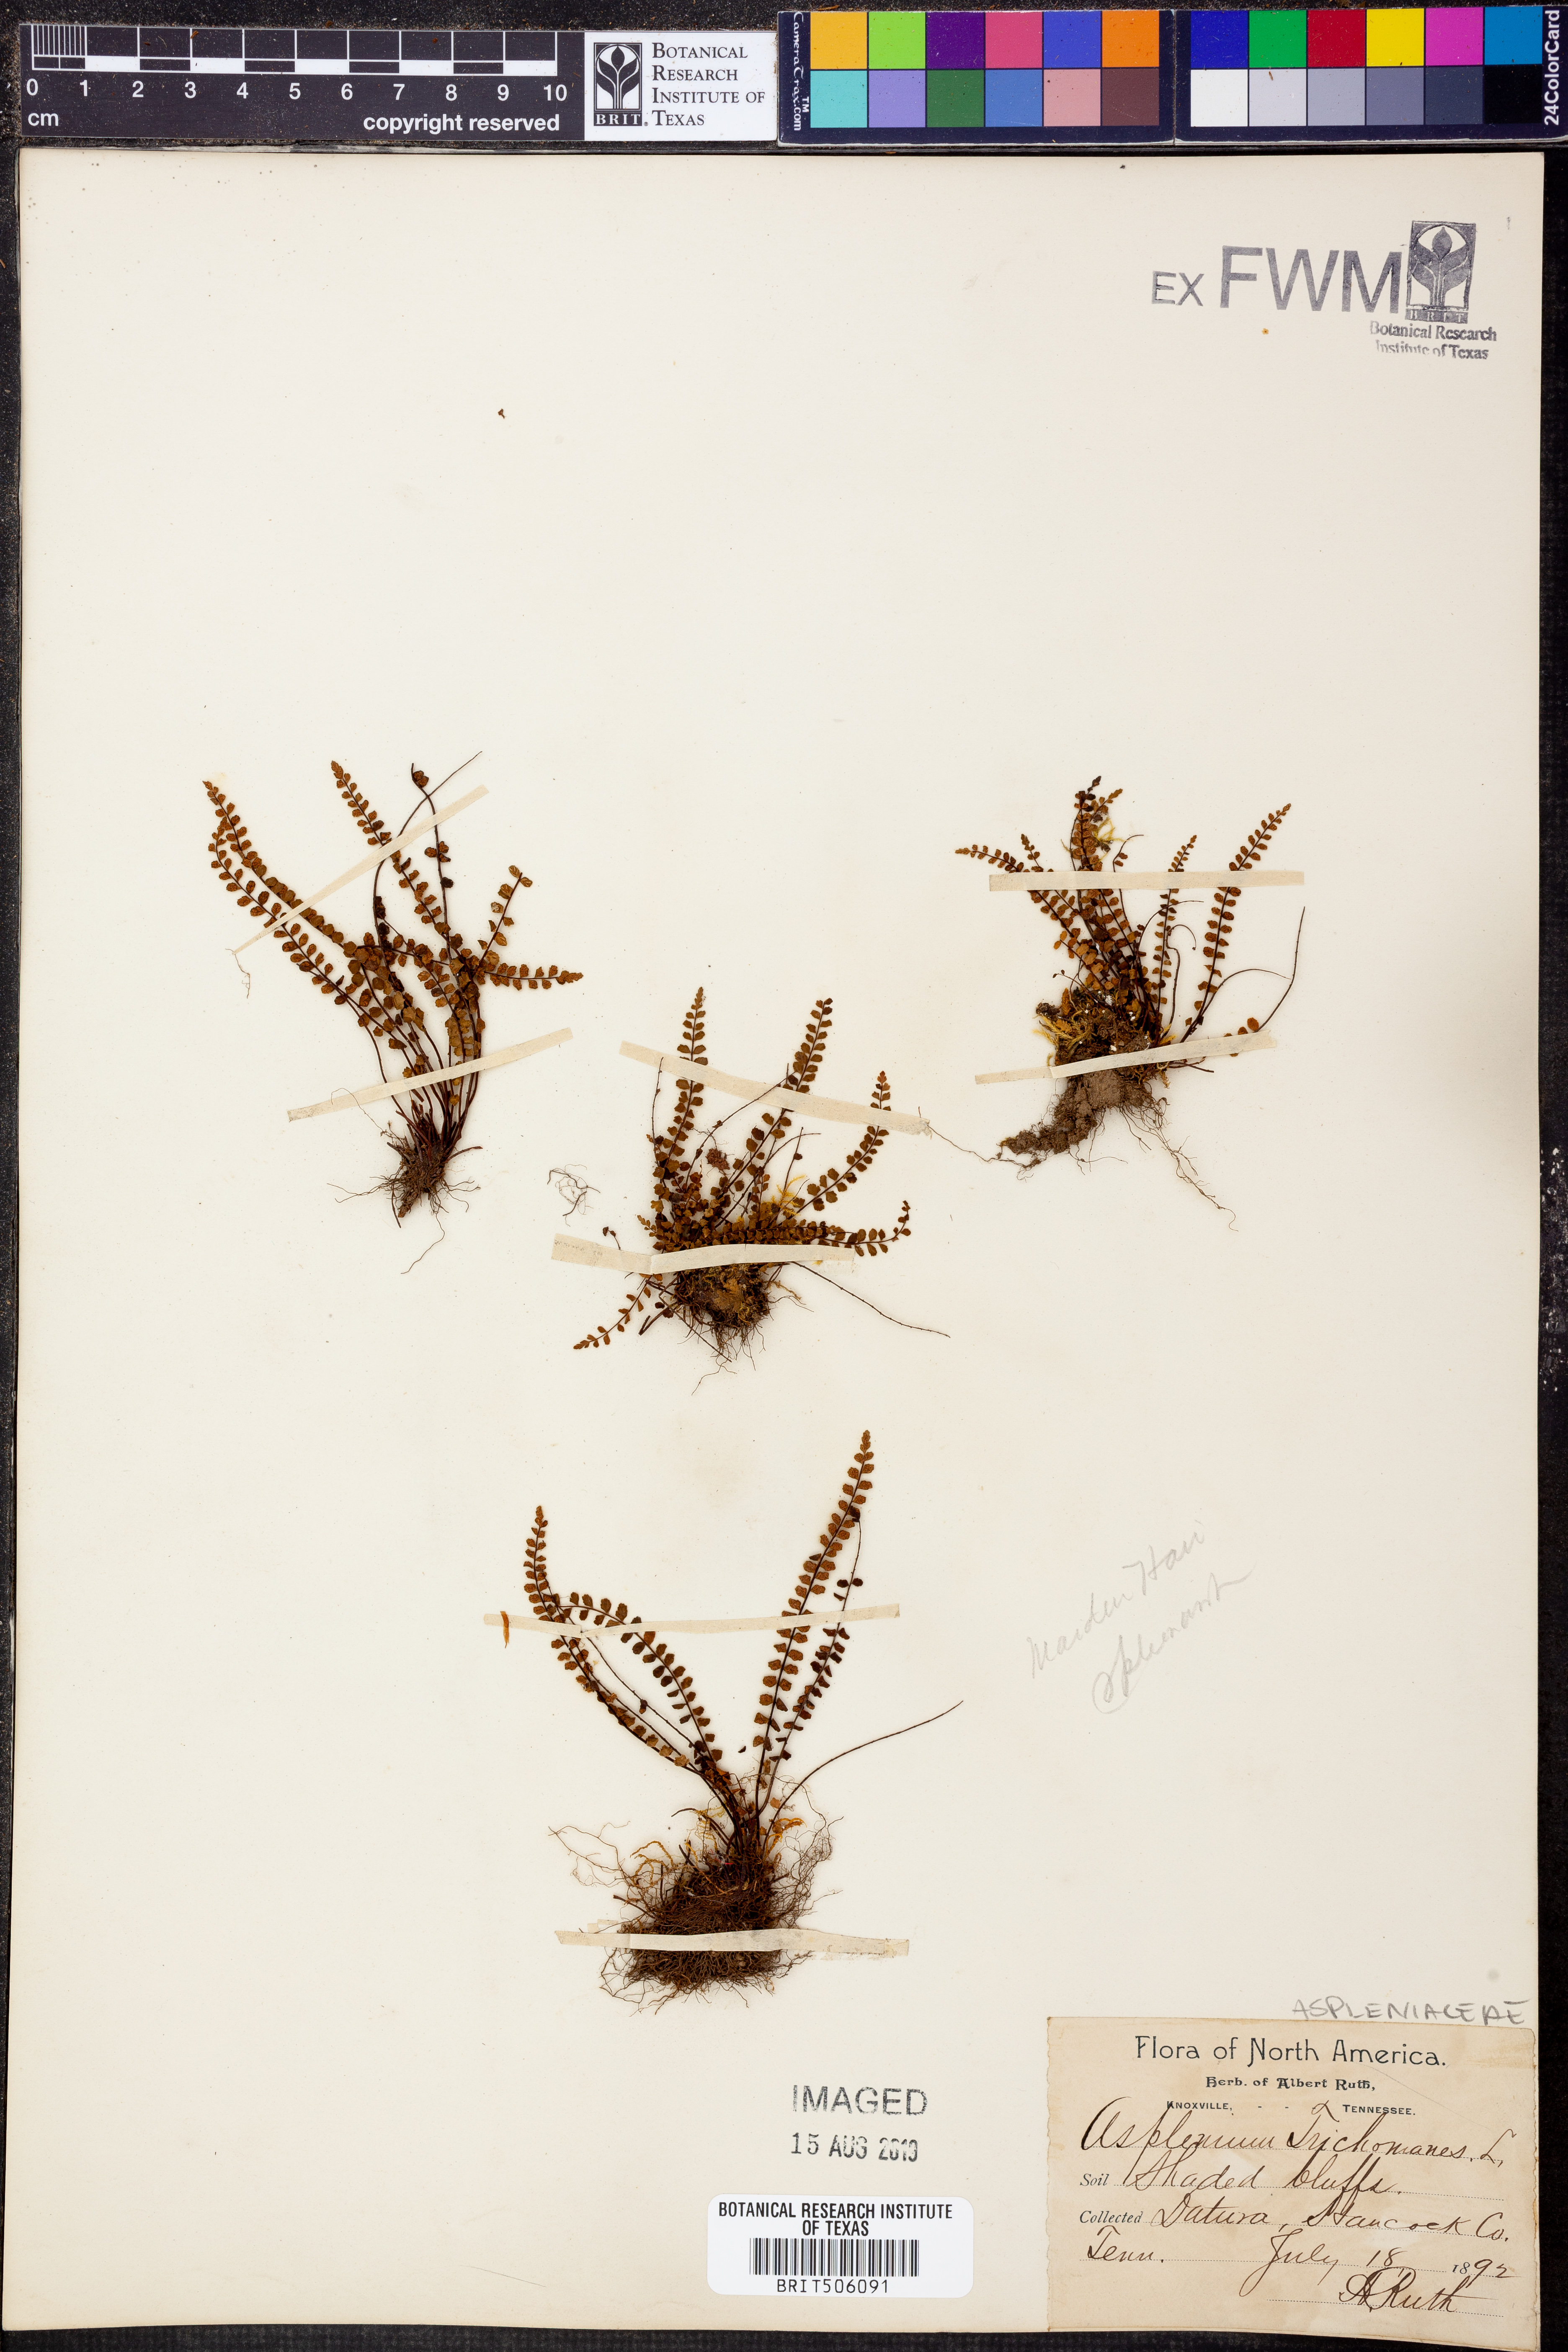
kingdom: Plantae
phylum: Tracheophyta
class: Polypodiopsida
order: Polypodiales
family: Aspleniaceae
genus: Asplenium
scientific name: Asplenium trichomanes
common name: Maidenhair spleenwort
